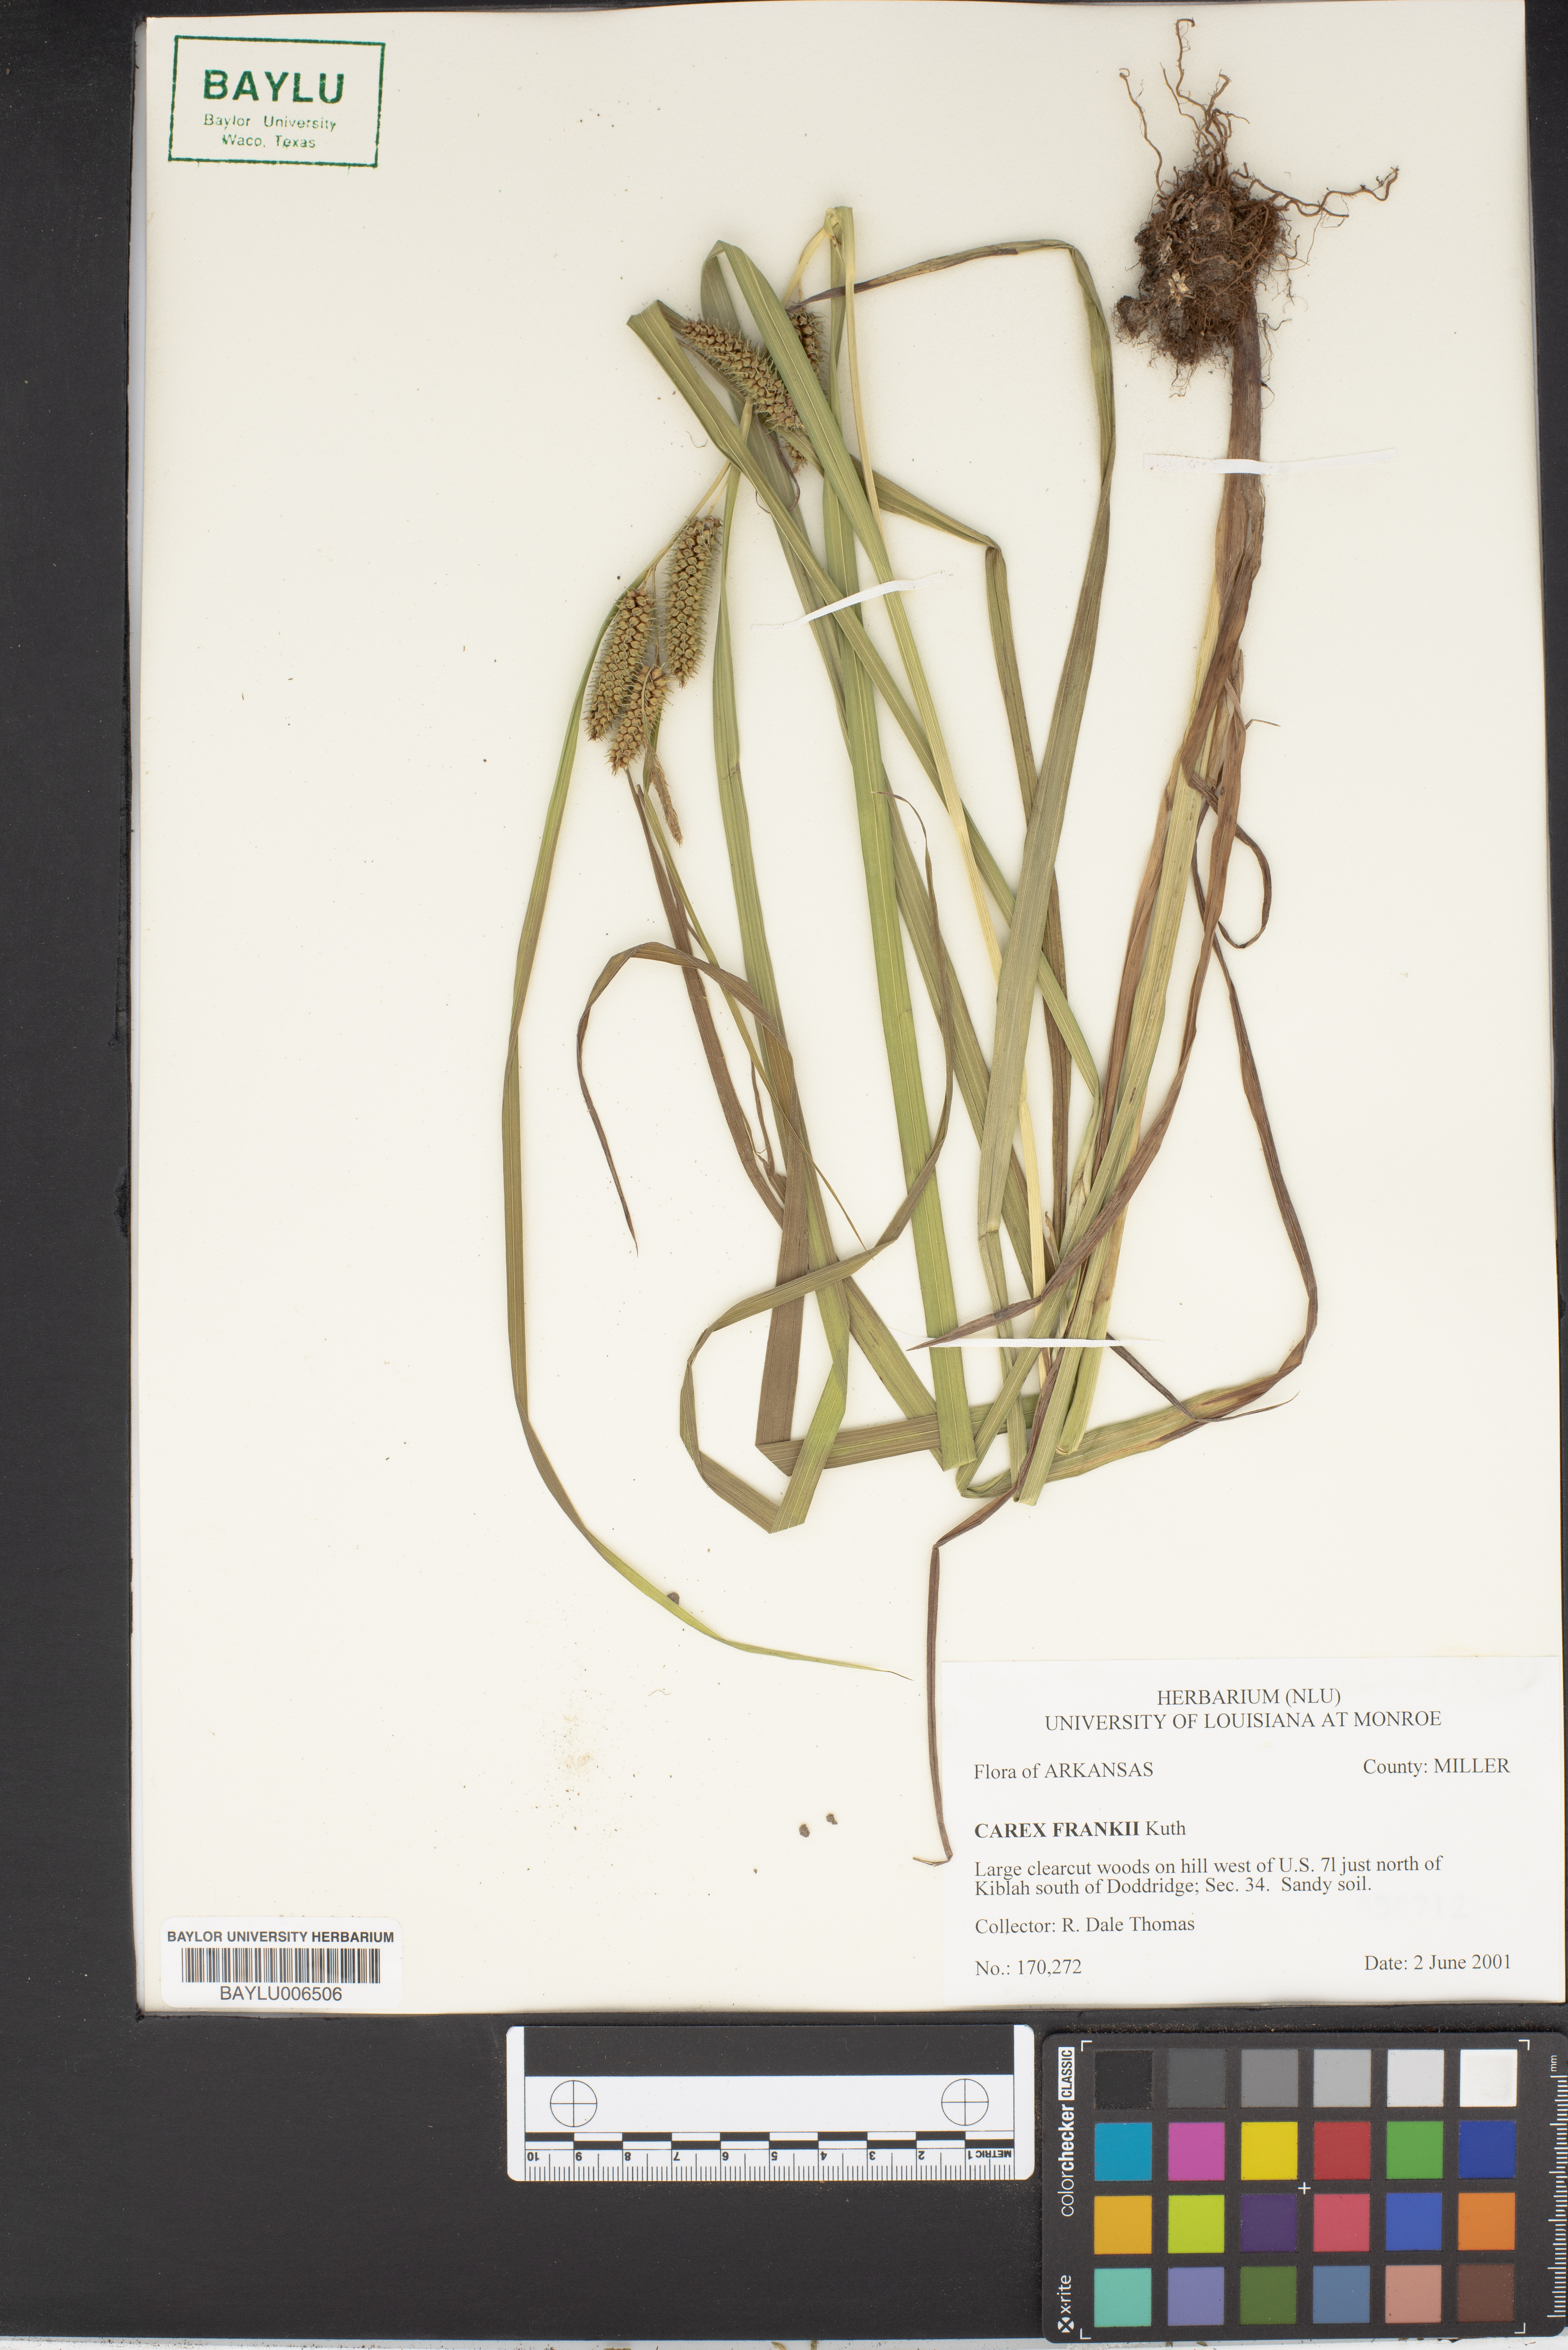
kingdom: Plantae
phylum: Tracheophyta
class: Liliopsida
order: Poales
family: Cyperaceae
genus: Carex
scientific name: Carex frankii
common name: Frank's sedge
